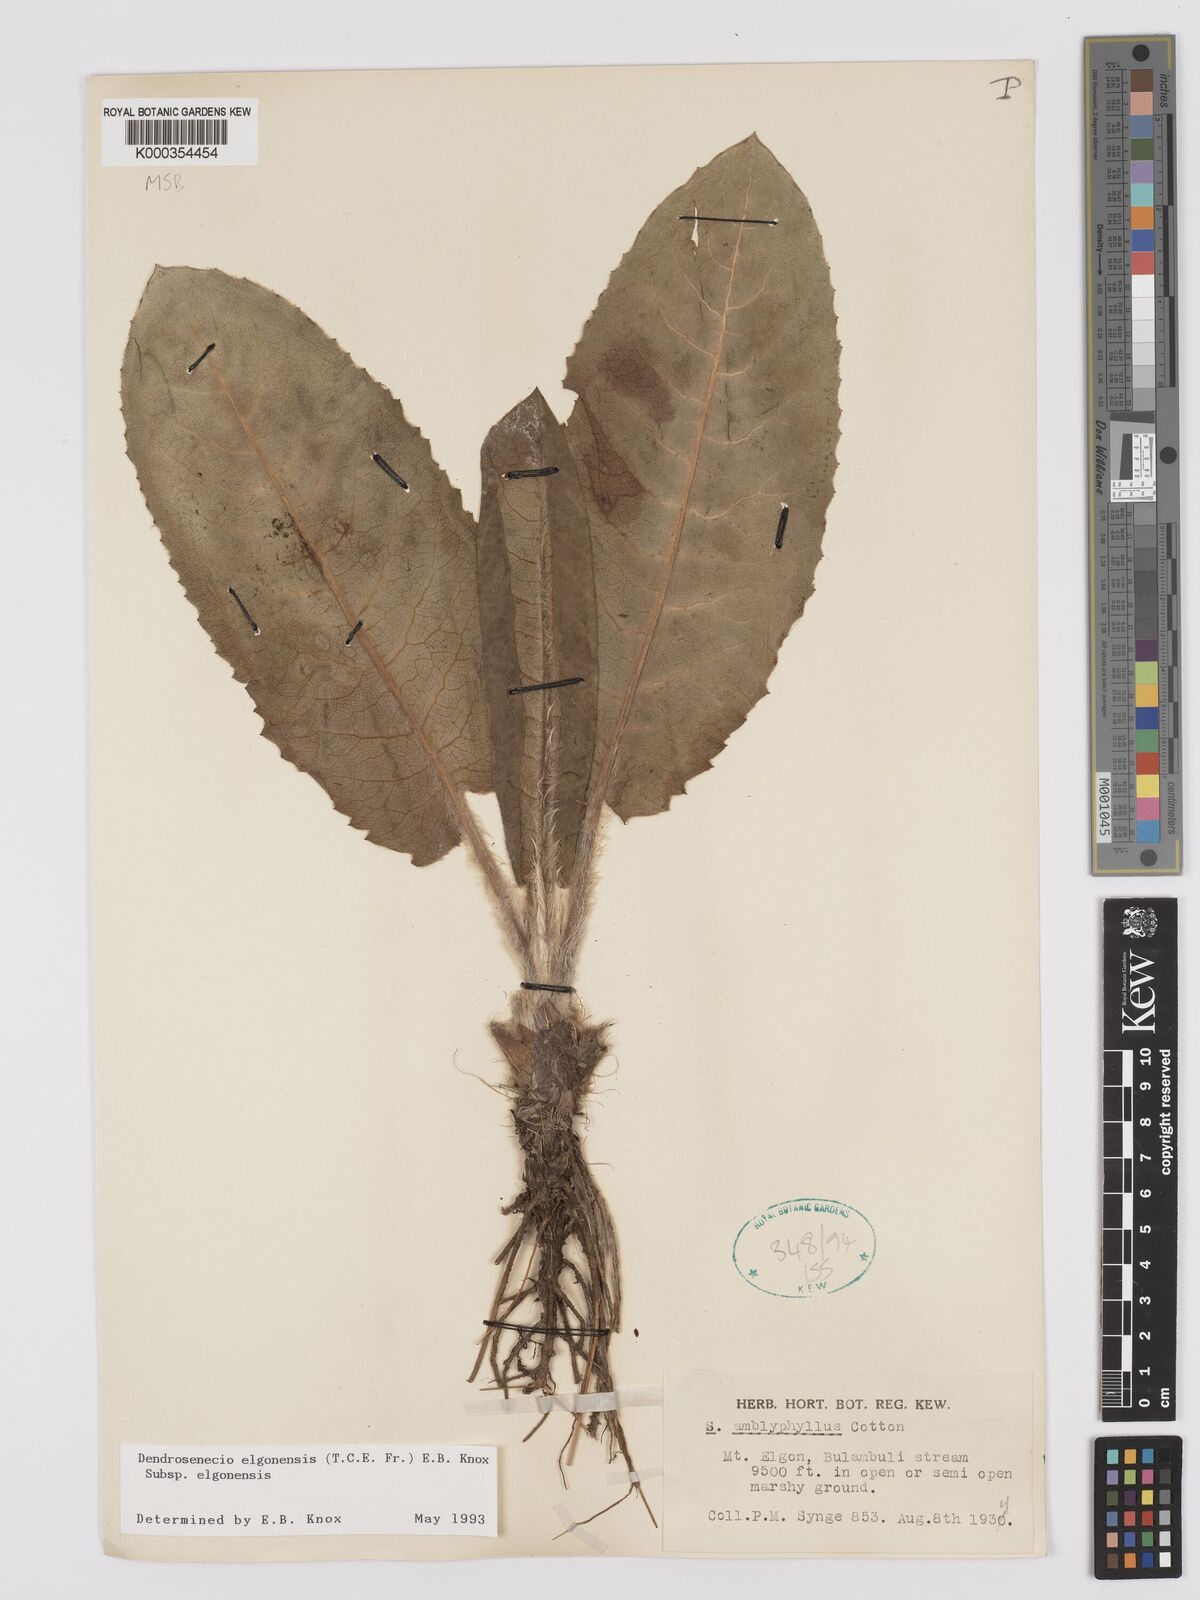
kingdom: Plantae
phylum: Tracheophyta
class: Magnoliopsida
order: Asterales
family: Asteraceae
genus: Dendrosenecio
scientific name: Dendrosenecio elgonensis
